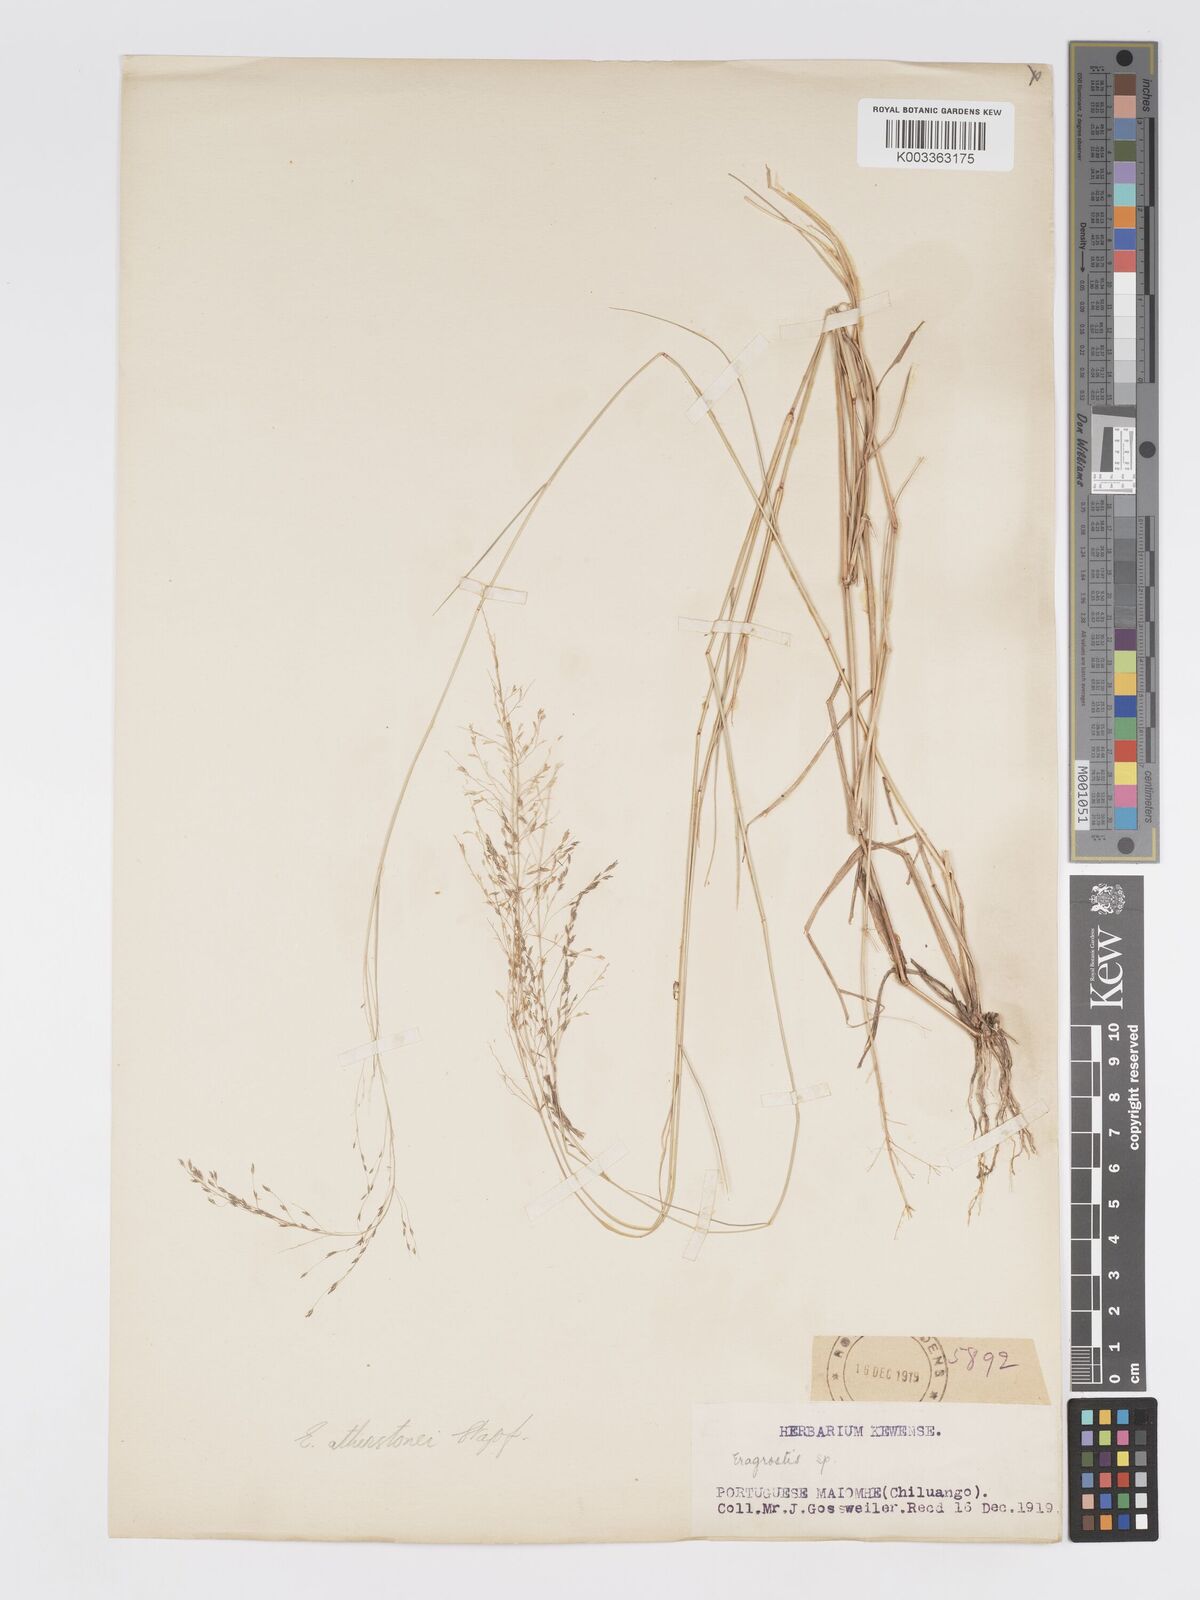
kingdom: Plantae
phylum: Tracheophyta
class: Liliopsida
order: Poales
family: Poaceae
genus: Eragrostis
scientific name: Eragrostis cylindriflora
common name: Cylinderflower lovegrass
